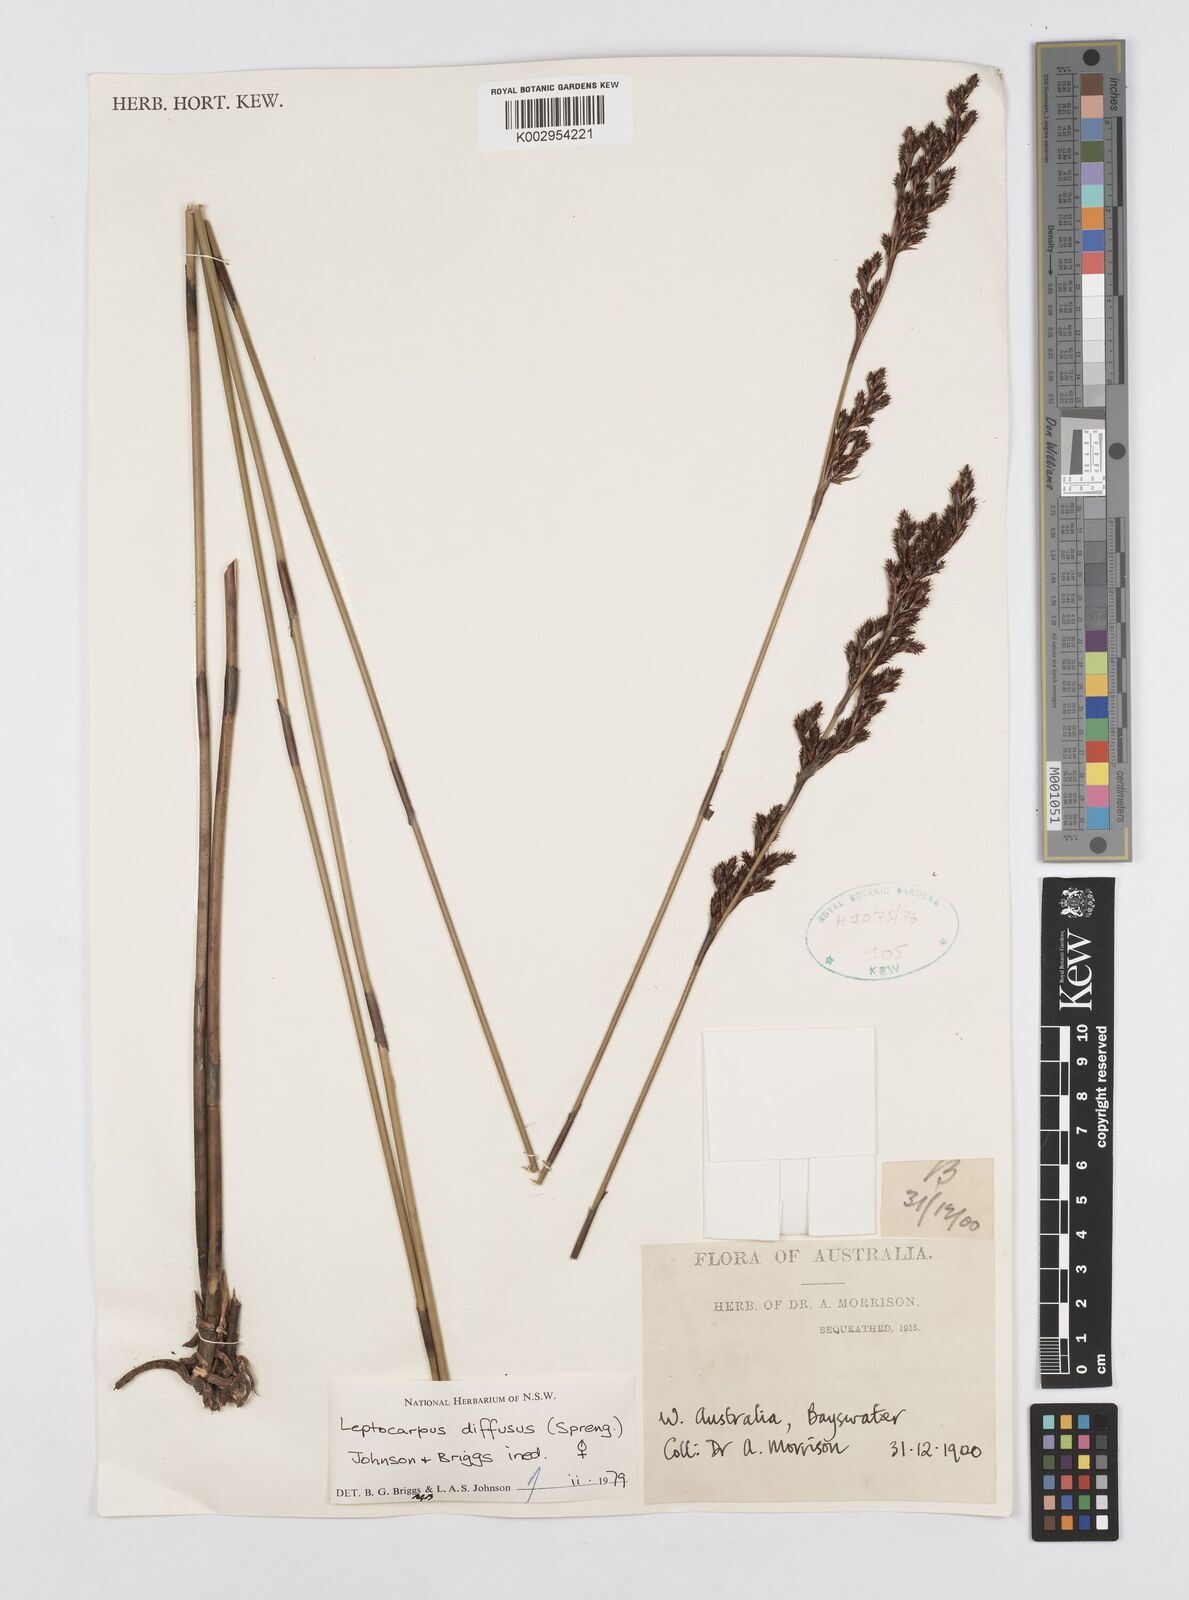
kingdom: Plantae
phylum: Tracheophyta
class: Liliopsida
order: Poales
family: Restionaceae
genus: Leptocarpus
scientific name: Leptocarpus laxus
